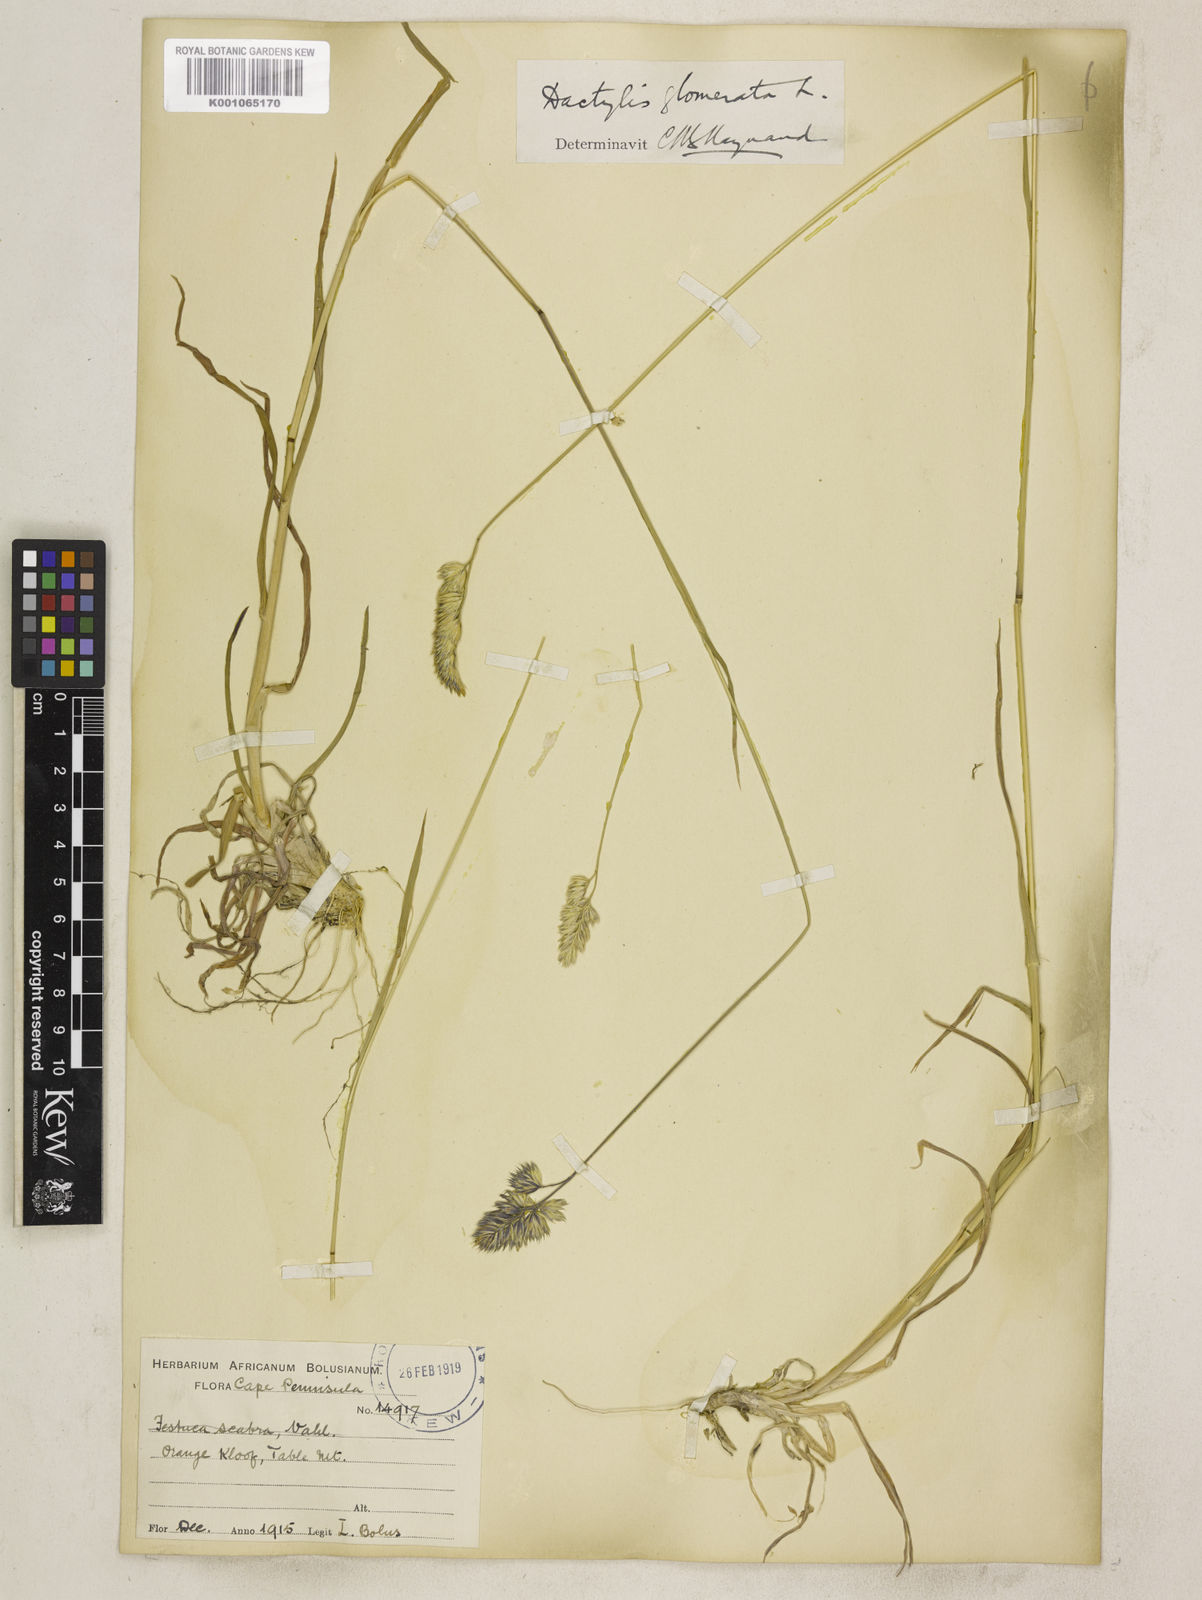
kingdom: Plantae
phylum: Tracheophyta
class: Liliopsida
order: Poales
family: Poaceae
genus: Dactylis
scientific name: Dactylis glomerata
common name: Orchardgrass
